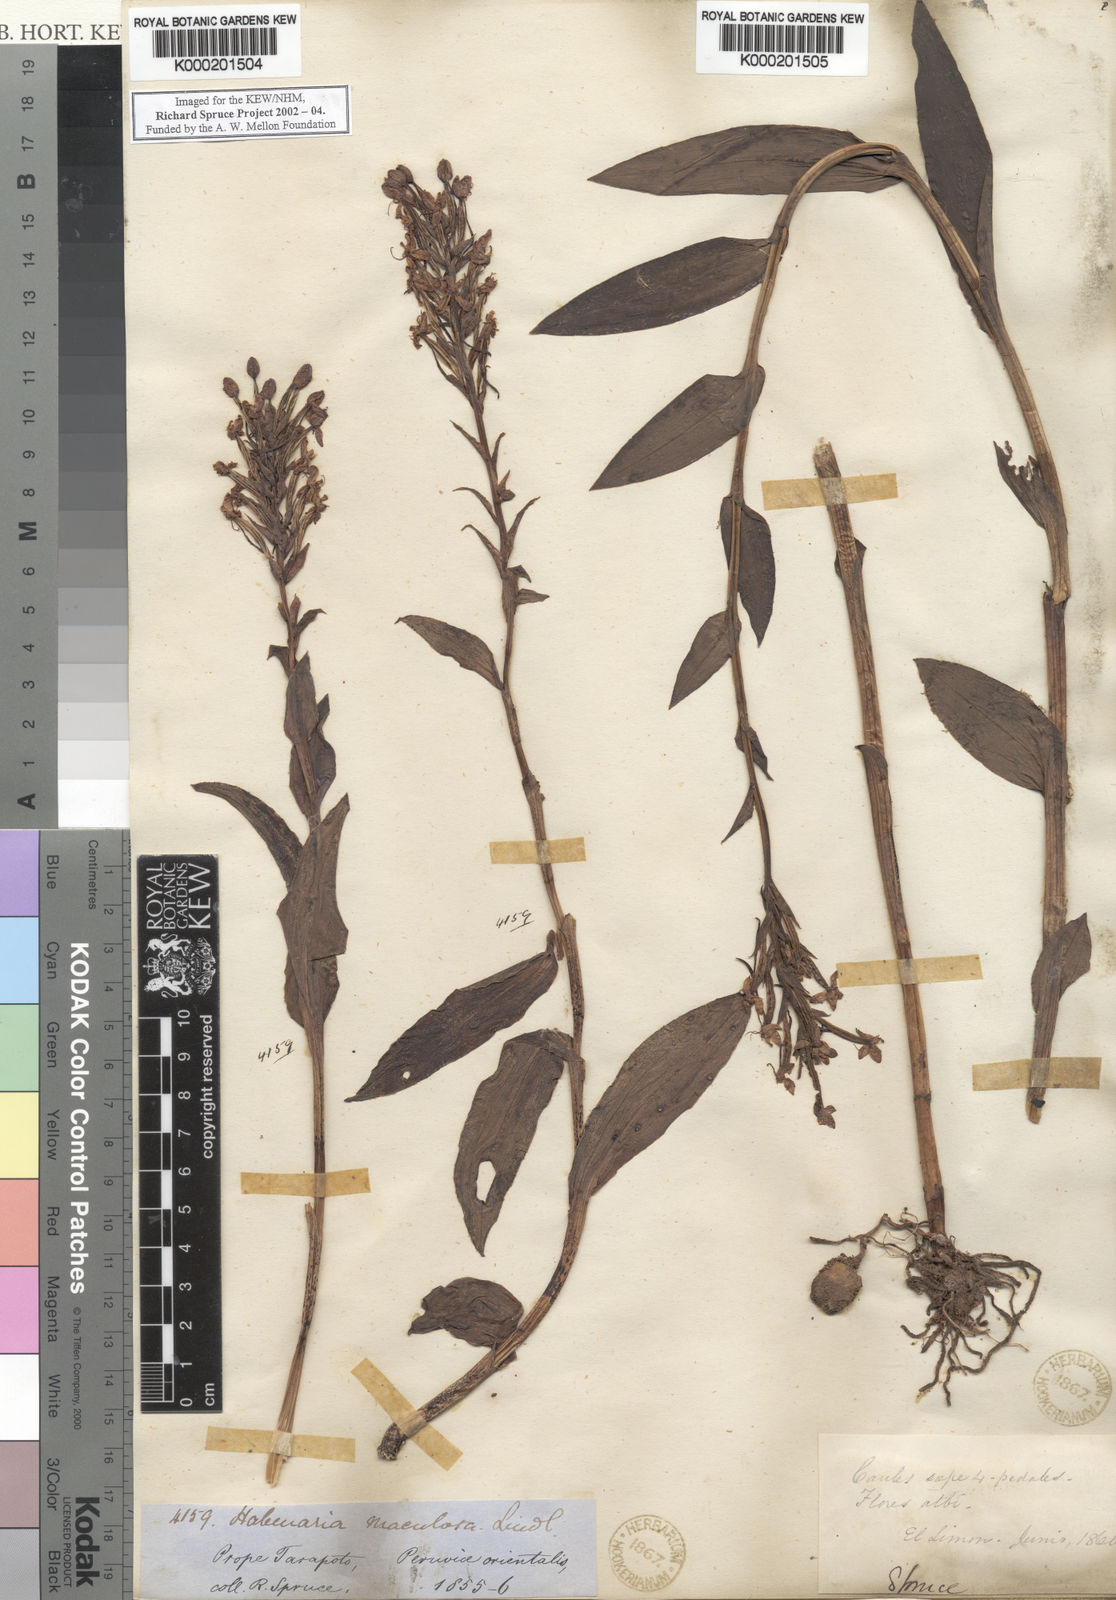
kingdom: Plantae
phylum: Tracheophyta
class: Liliopsida
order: Asparagales
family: Orchidaceae
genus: Habenaria
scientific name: Habenaria maculosa
